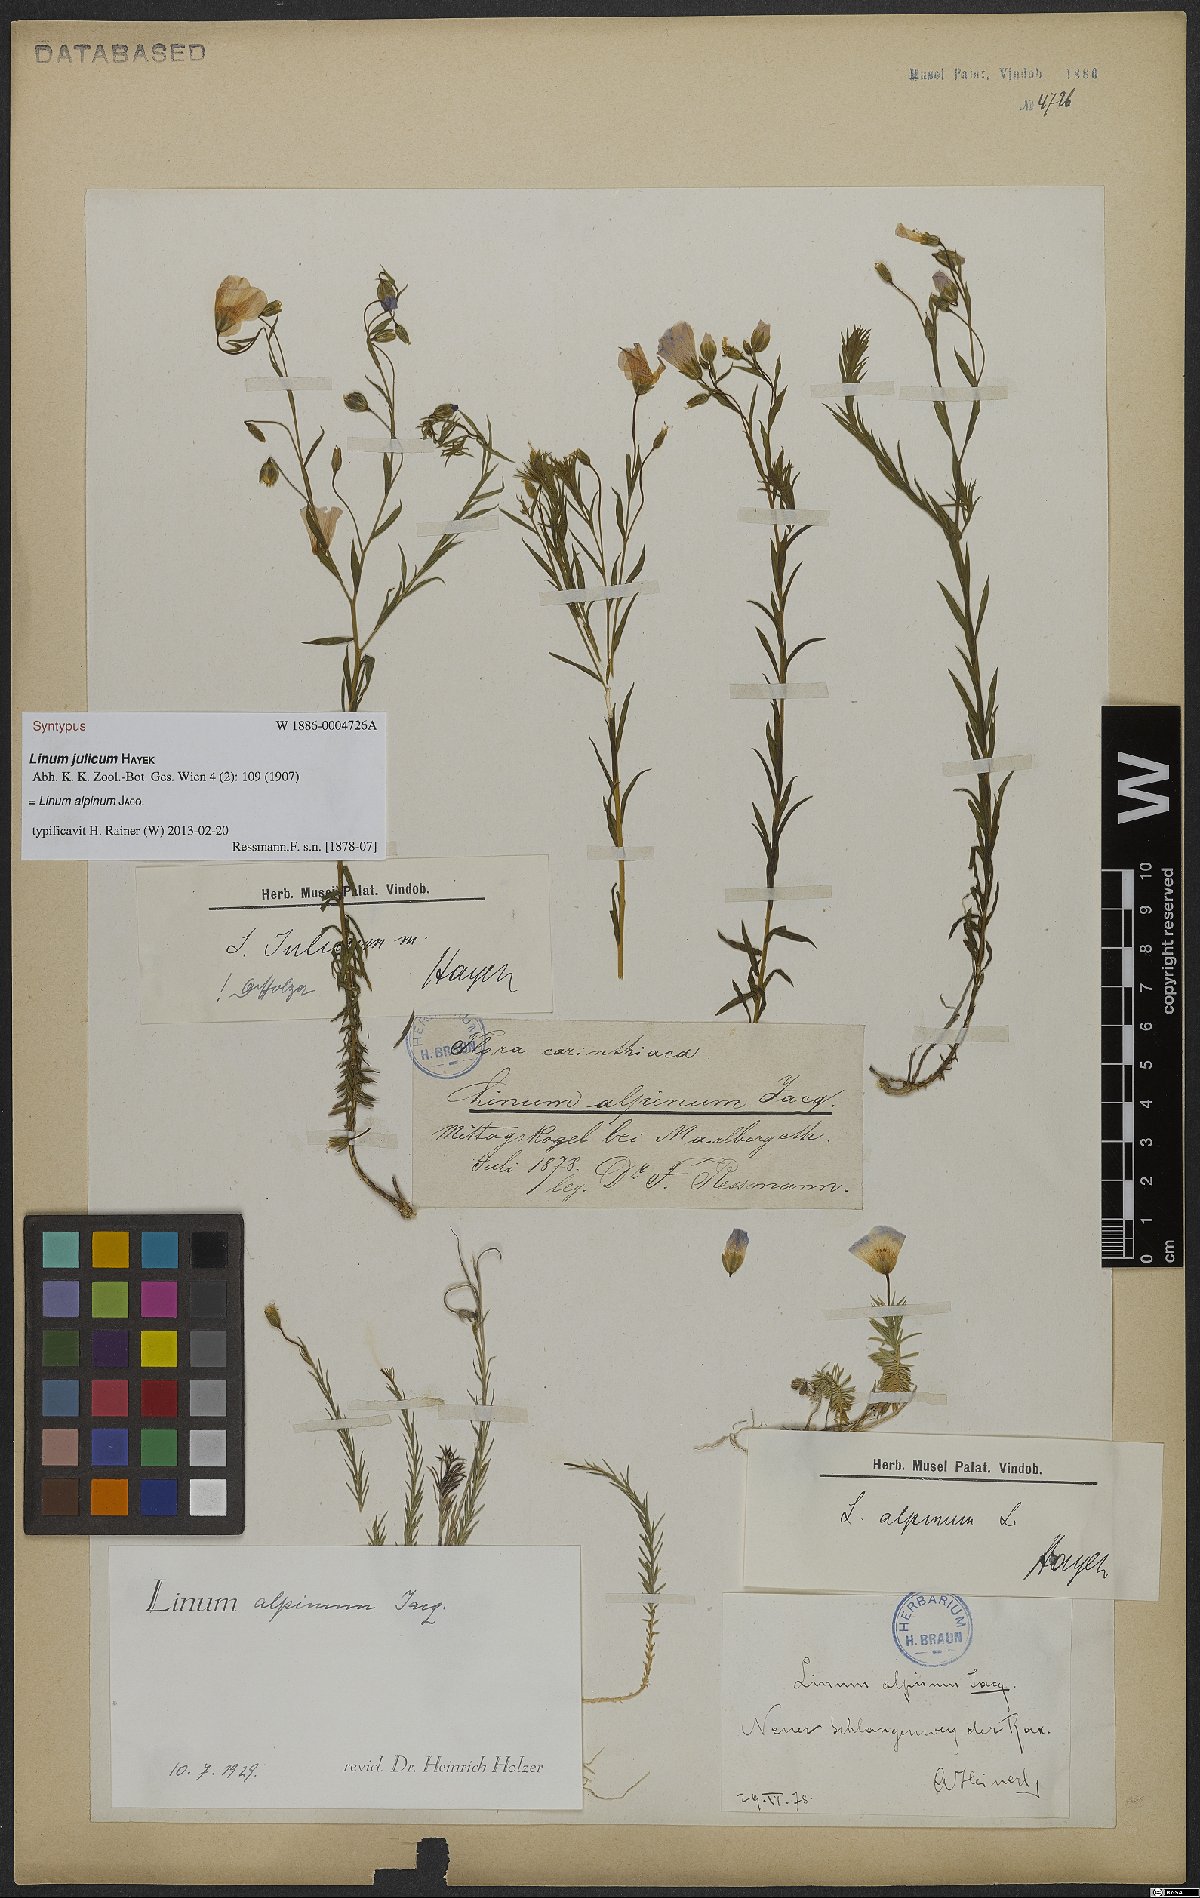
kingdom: Plantae
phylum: Tracheophyta
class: Magnoliopsida
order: Malpighiales
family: Linaceae
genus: Linum
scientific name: Linum alpinum
